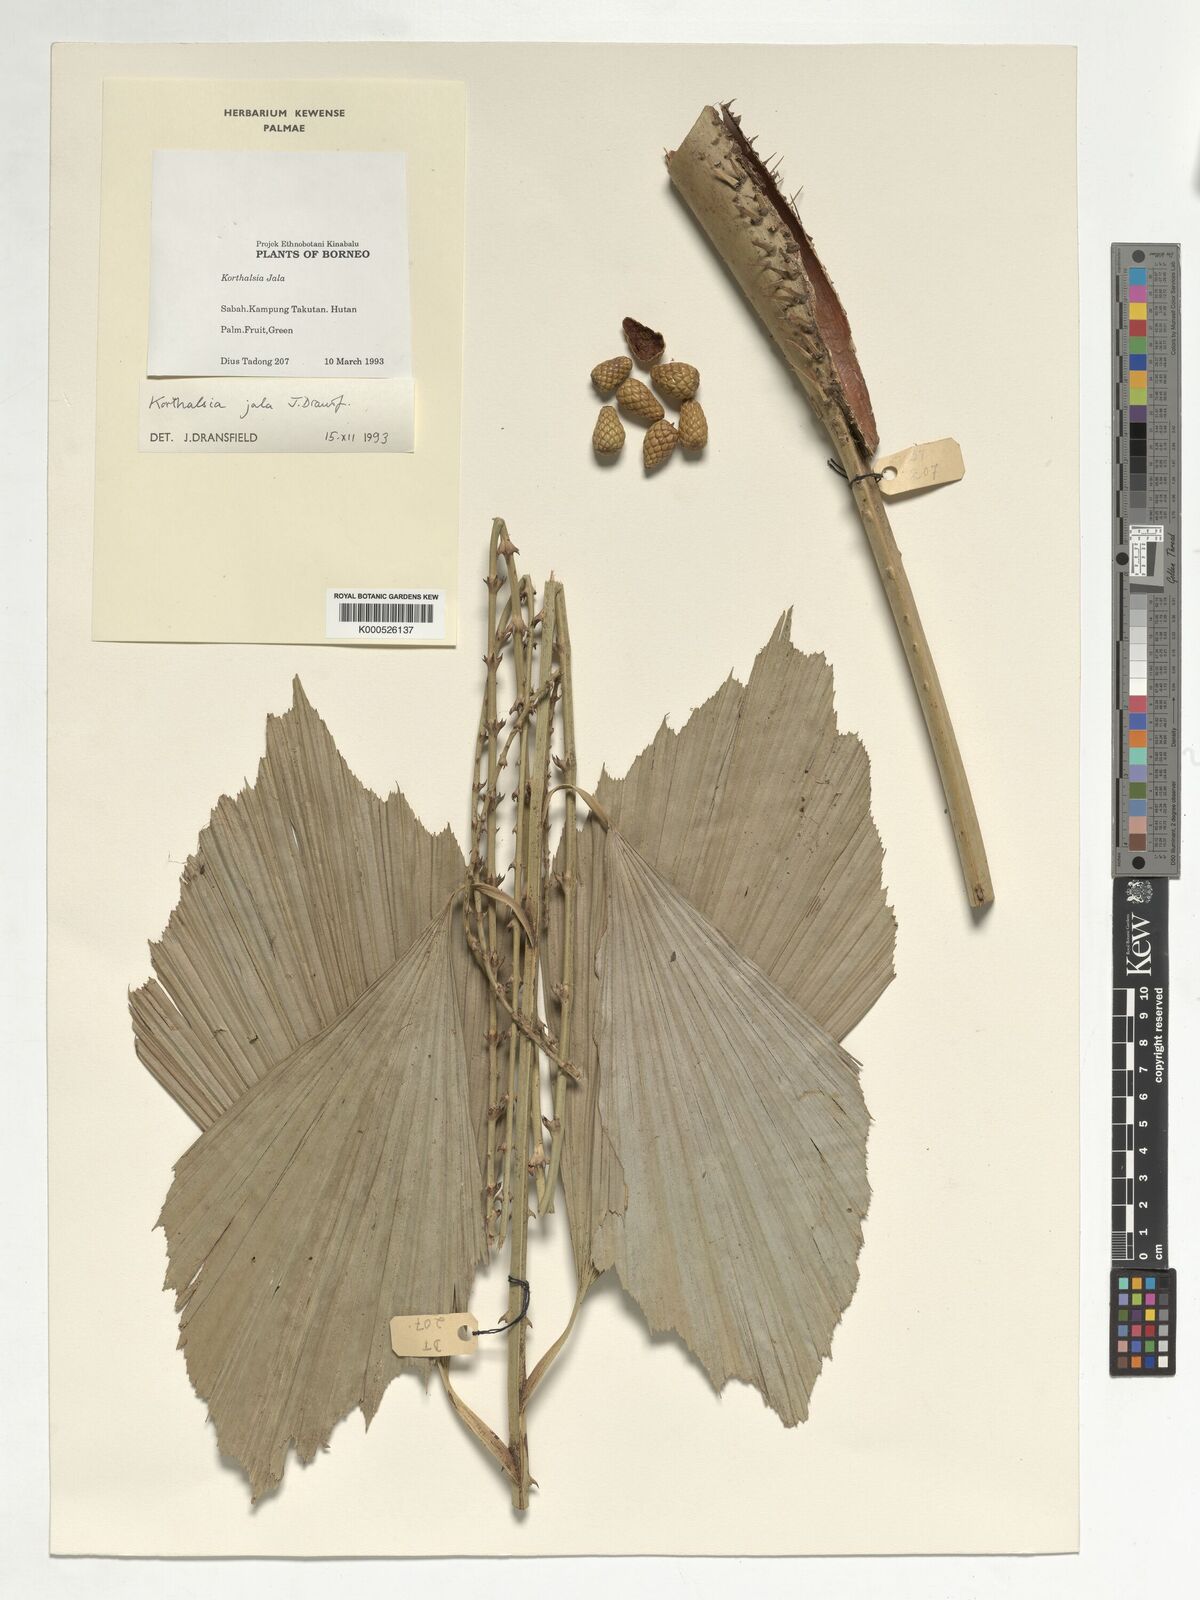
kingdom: Plantae
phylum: Tracheophyta
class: Liliopsida
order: Arecales
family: Arecaceae
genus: Korthalsia
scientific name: Korthalsia jala
